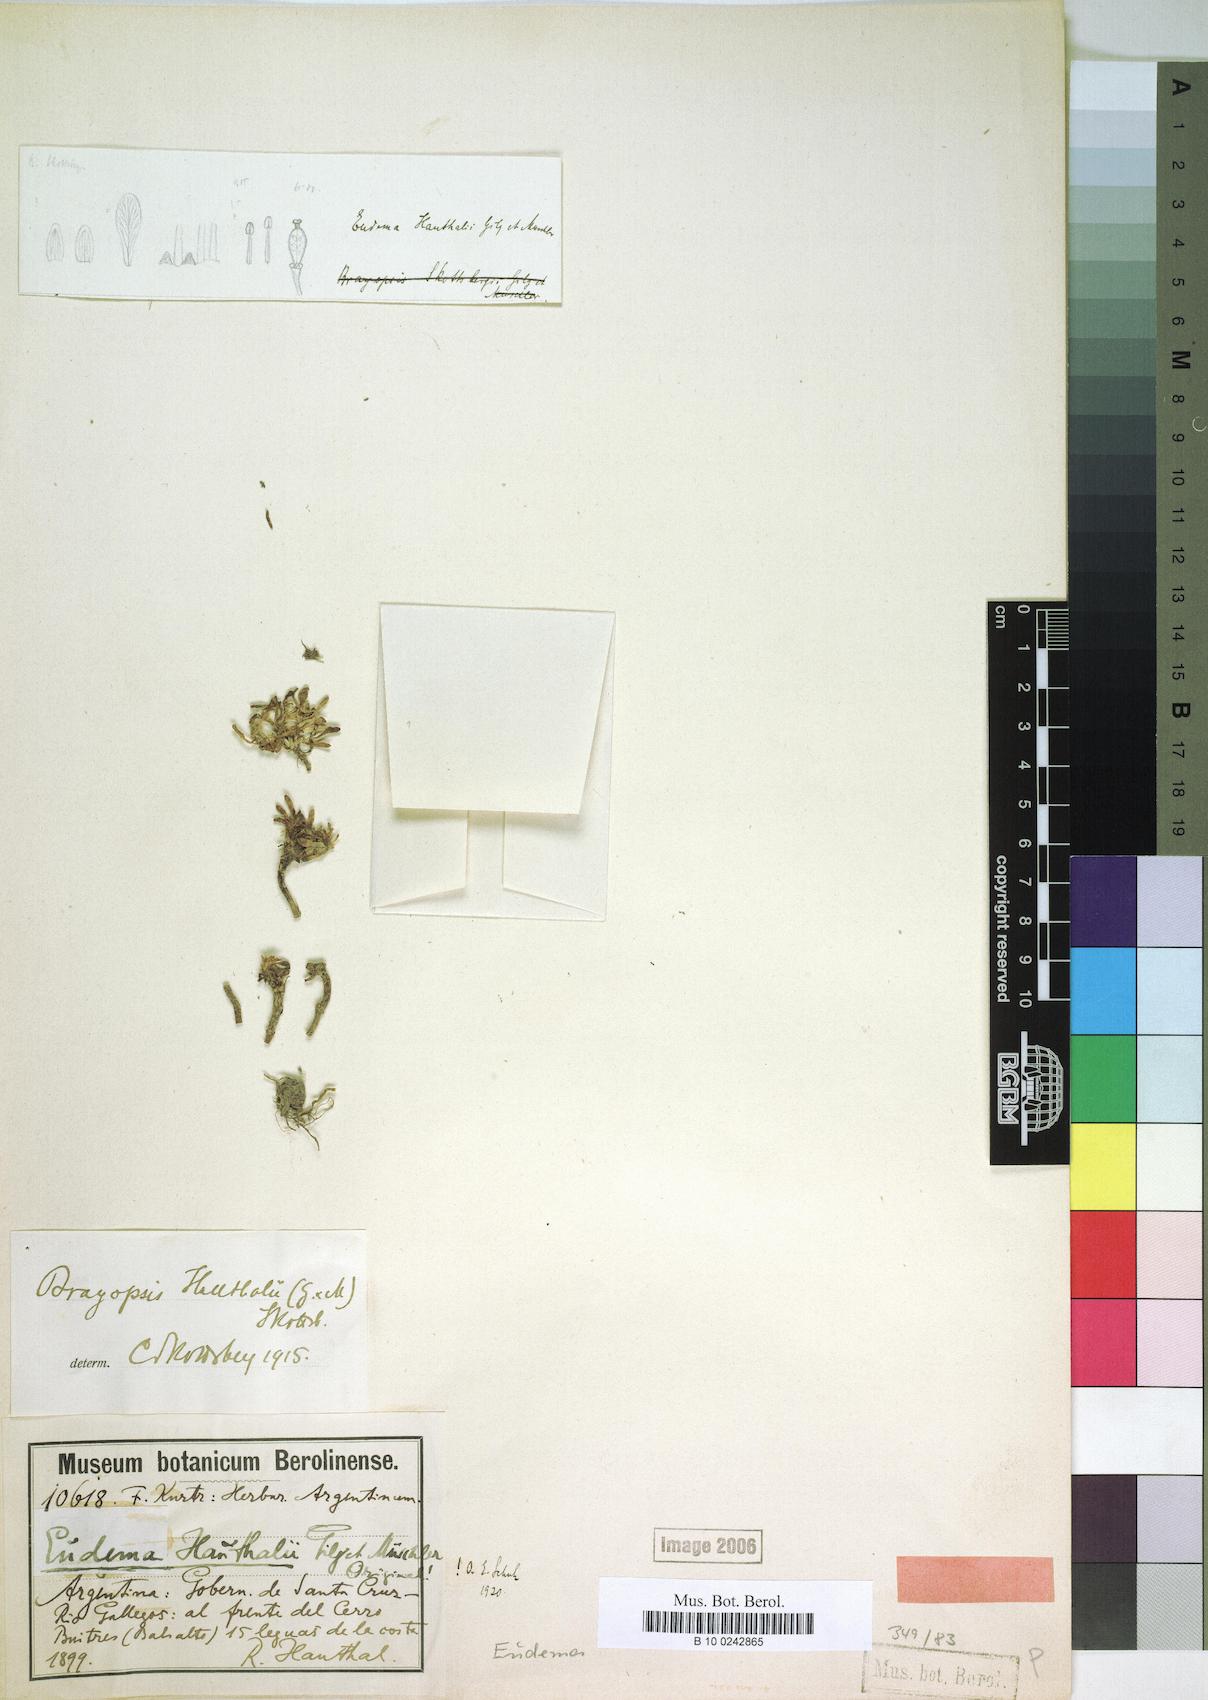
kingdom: Plantae
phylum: Tracheophyta
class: Magnoliopsida
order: Brassicales
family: Brassicaceae
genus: Alshehbazia
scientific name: Alshehbazia hauthalii
